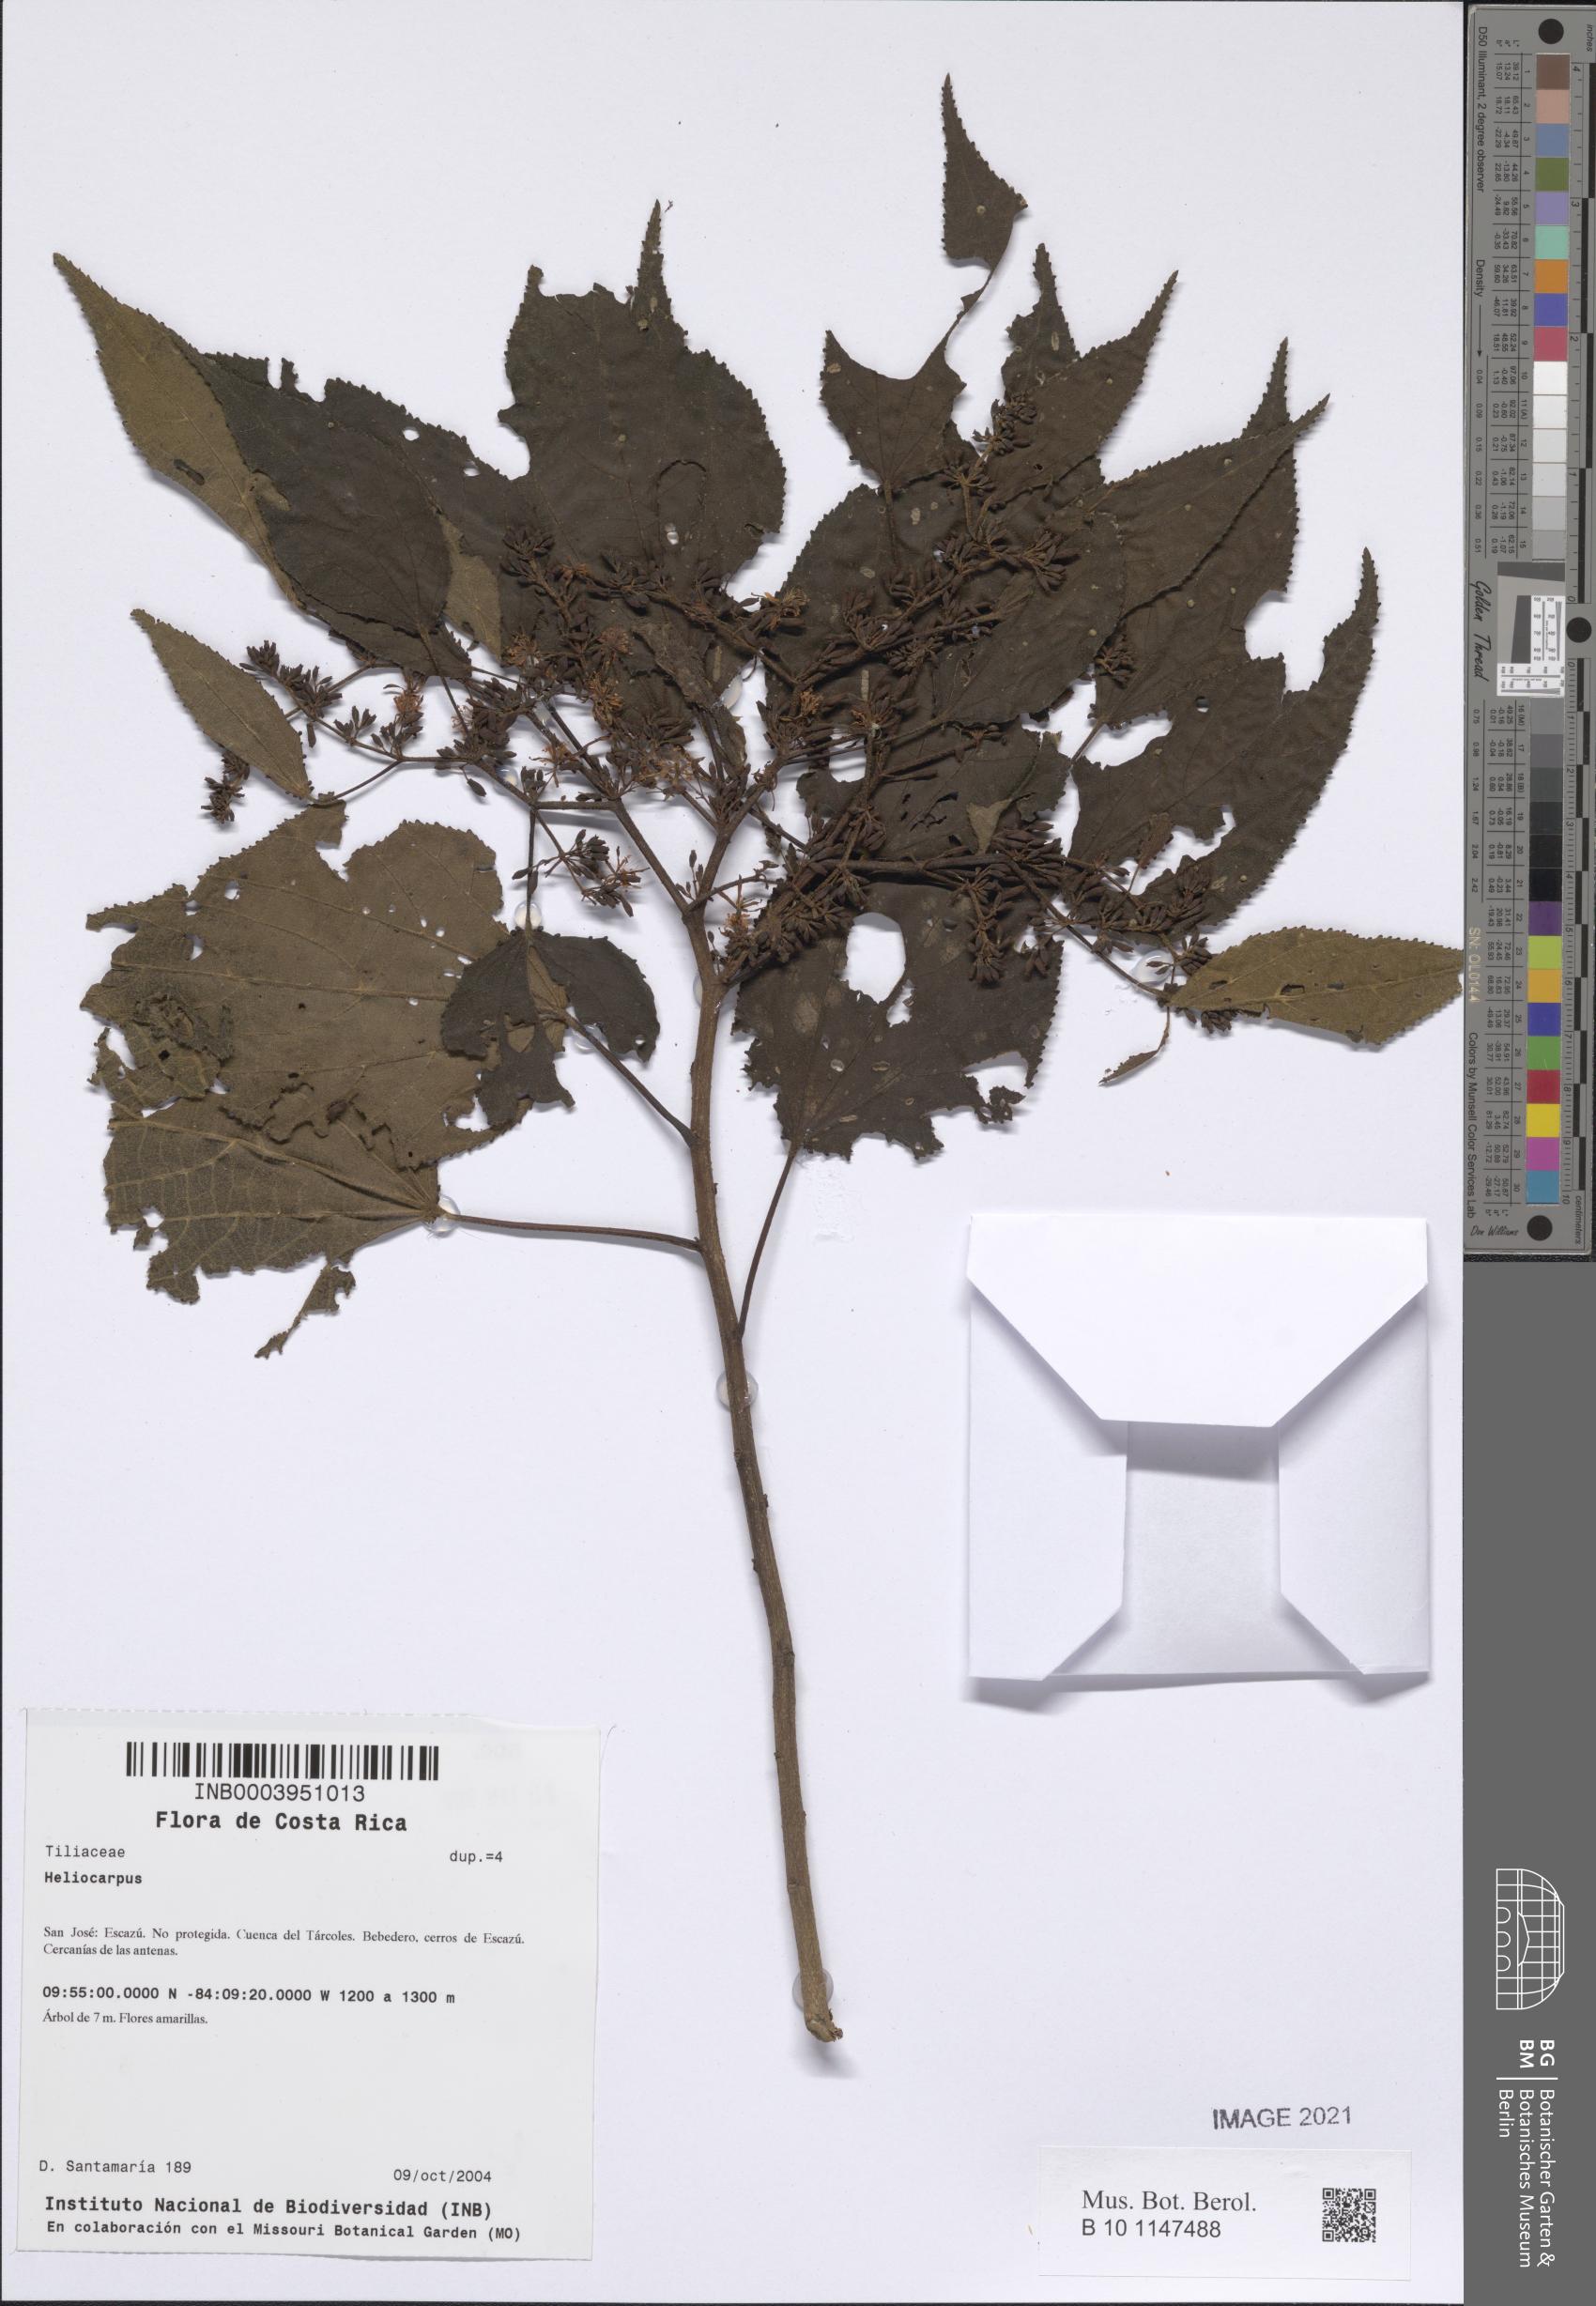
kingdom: Plantae
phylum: Tracheophyta
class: Magnoliopsida
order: Malvales
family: Malvaceae
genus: Heliocarpus
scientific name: Heliocarpus
